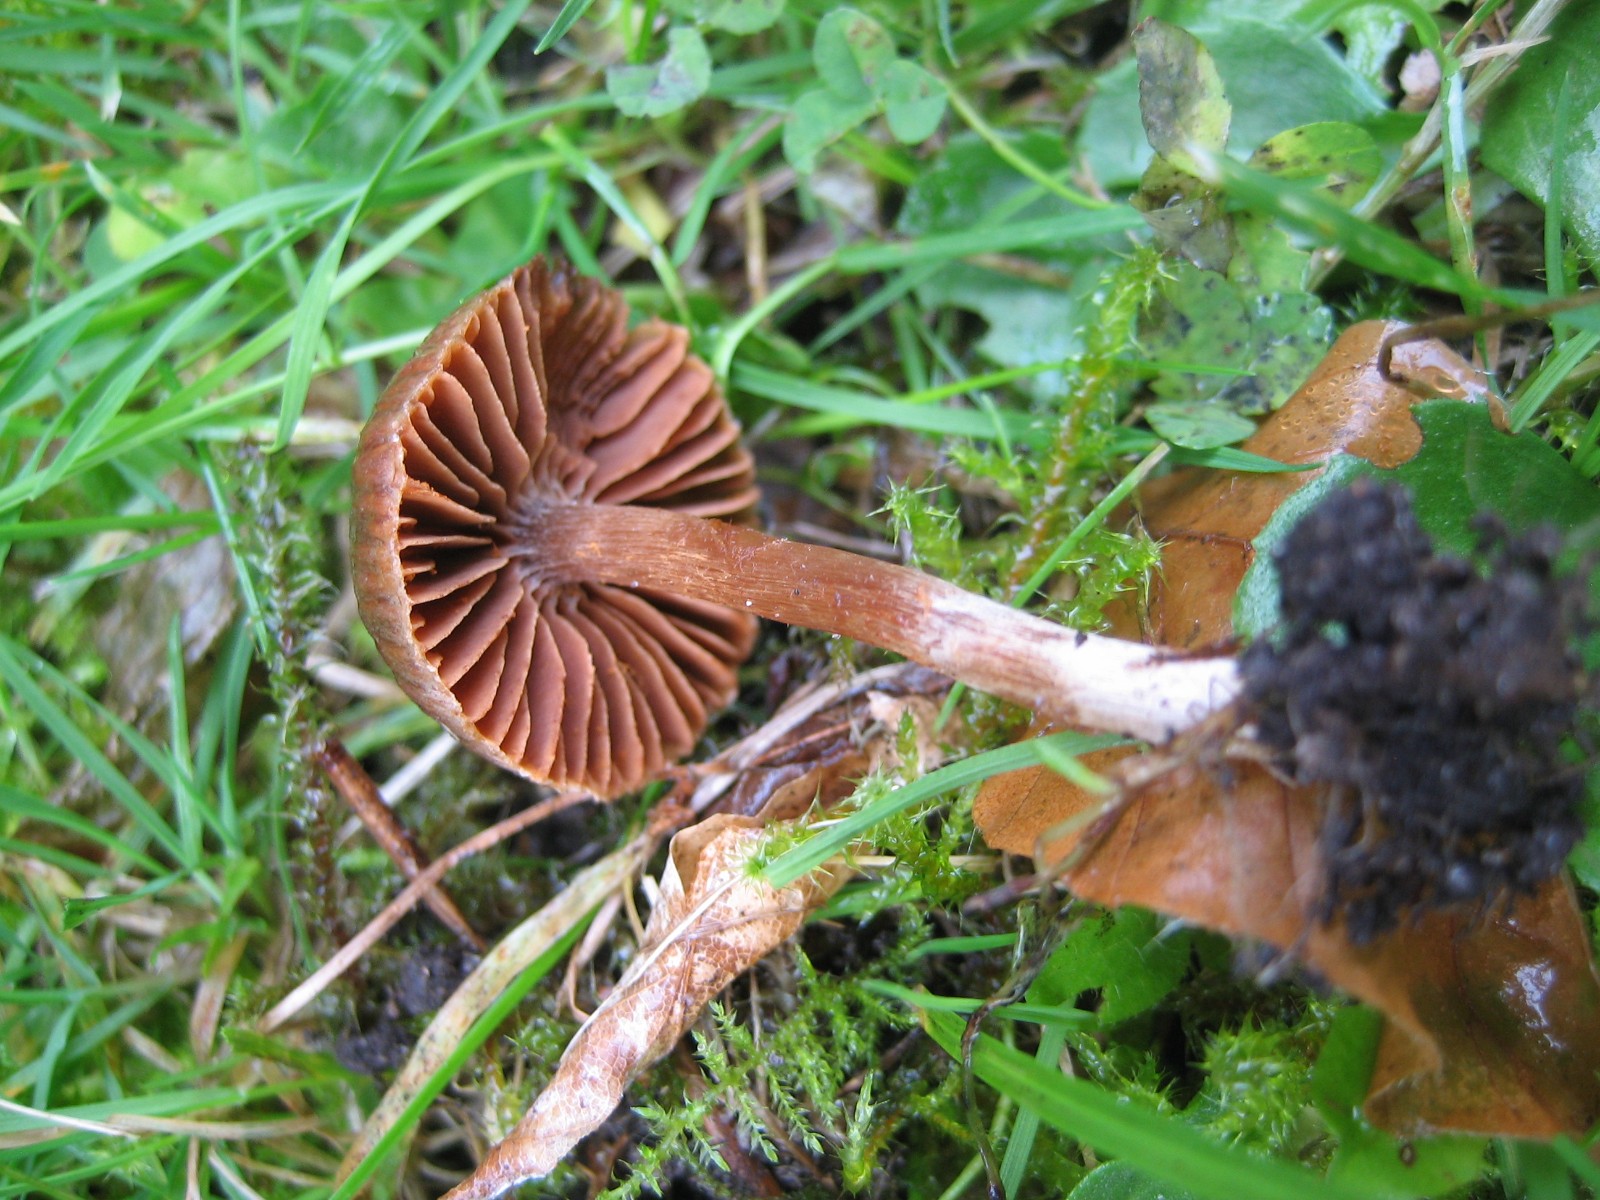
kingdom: Fungi
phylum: Basidiomycota
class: Agaricomycetes
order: Agaricales
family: Cortinariaceae
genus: Cortinarius
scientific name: Cortinarius
